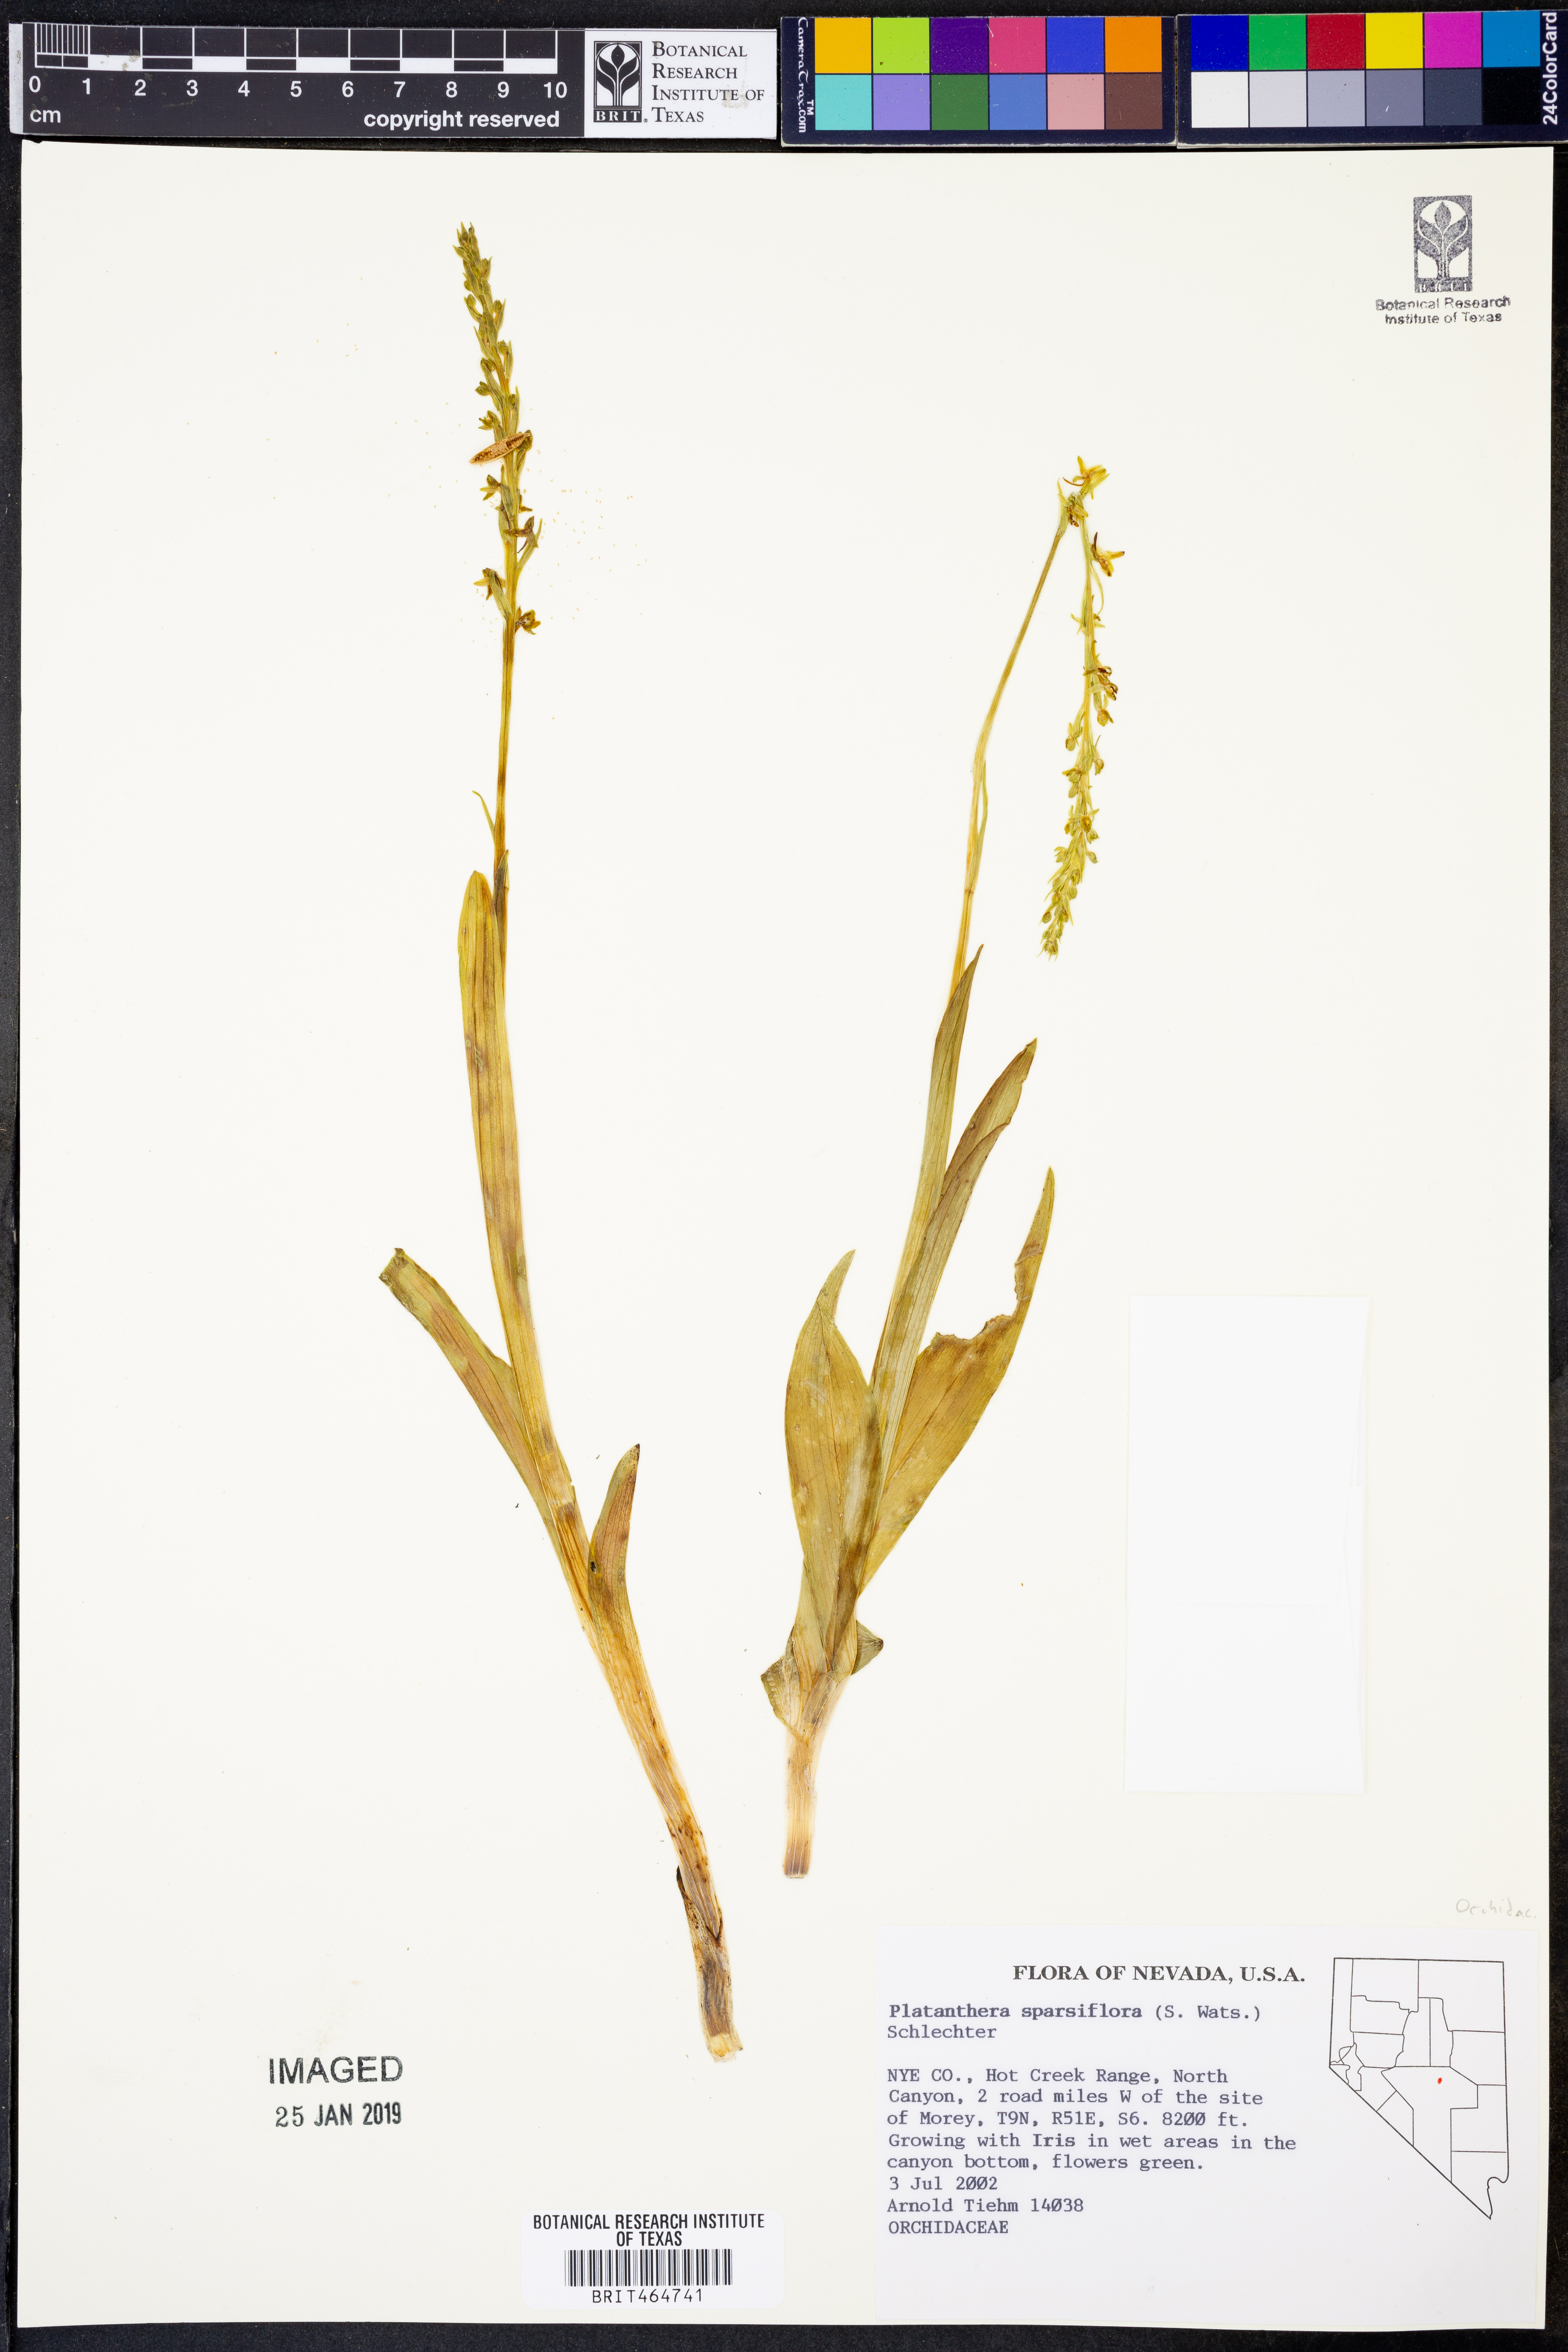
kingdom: Plantae
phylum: Tracheophyta
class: Liliopsida
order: Asparagales
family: Orchidaceae
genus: Platanthera
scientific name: Platanthera sparsiflora
